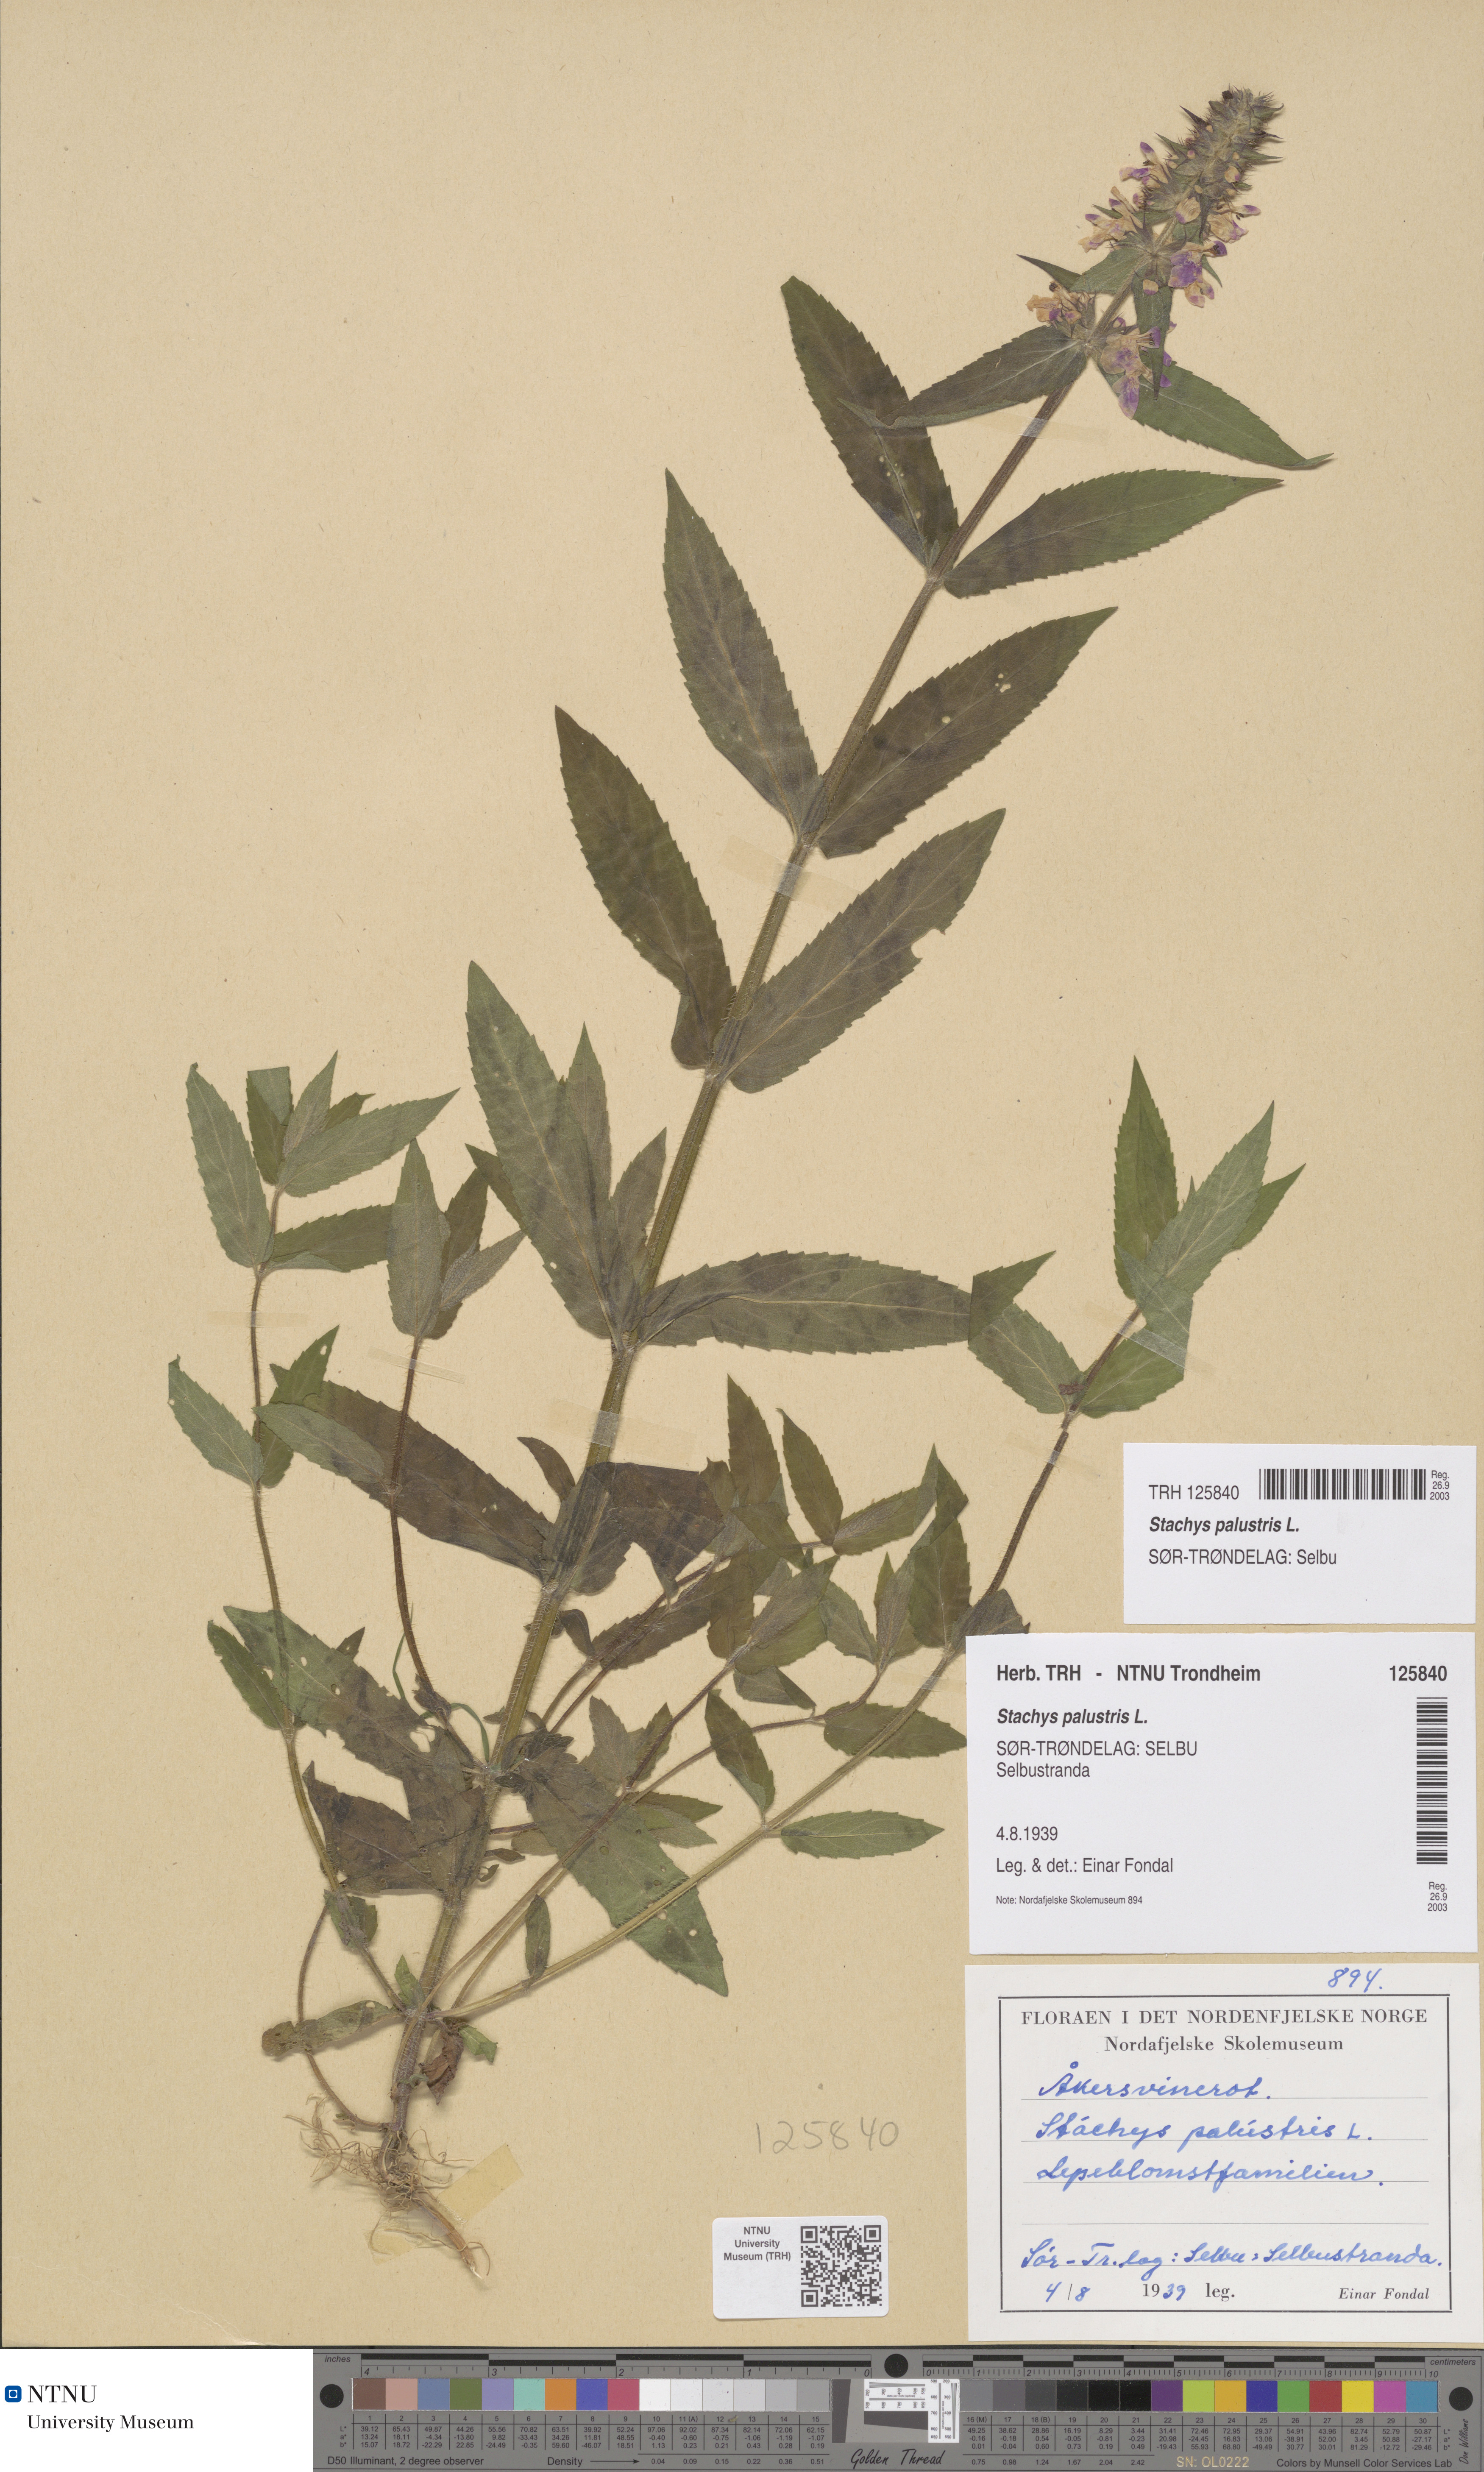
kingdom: Plantae
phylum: Tracheophyta
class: Magnoliopsida
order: Lamiales
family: Lamiaceae
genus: Stachys
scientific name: Stachys palustris
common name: Marsh woundwort
